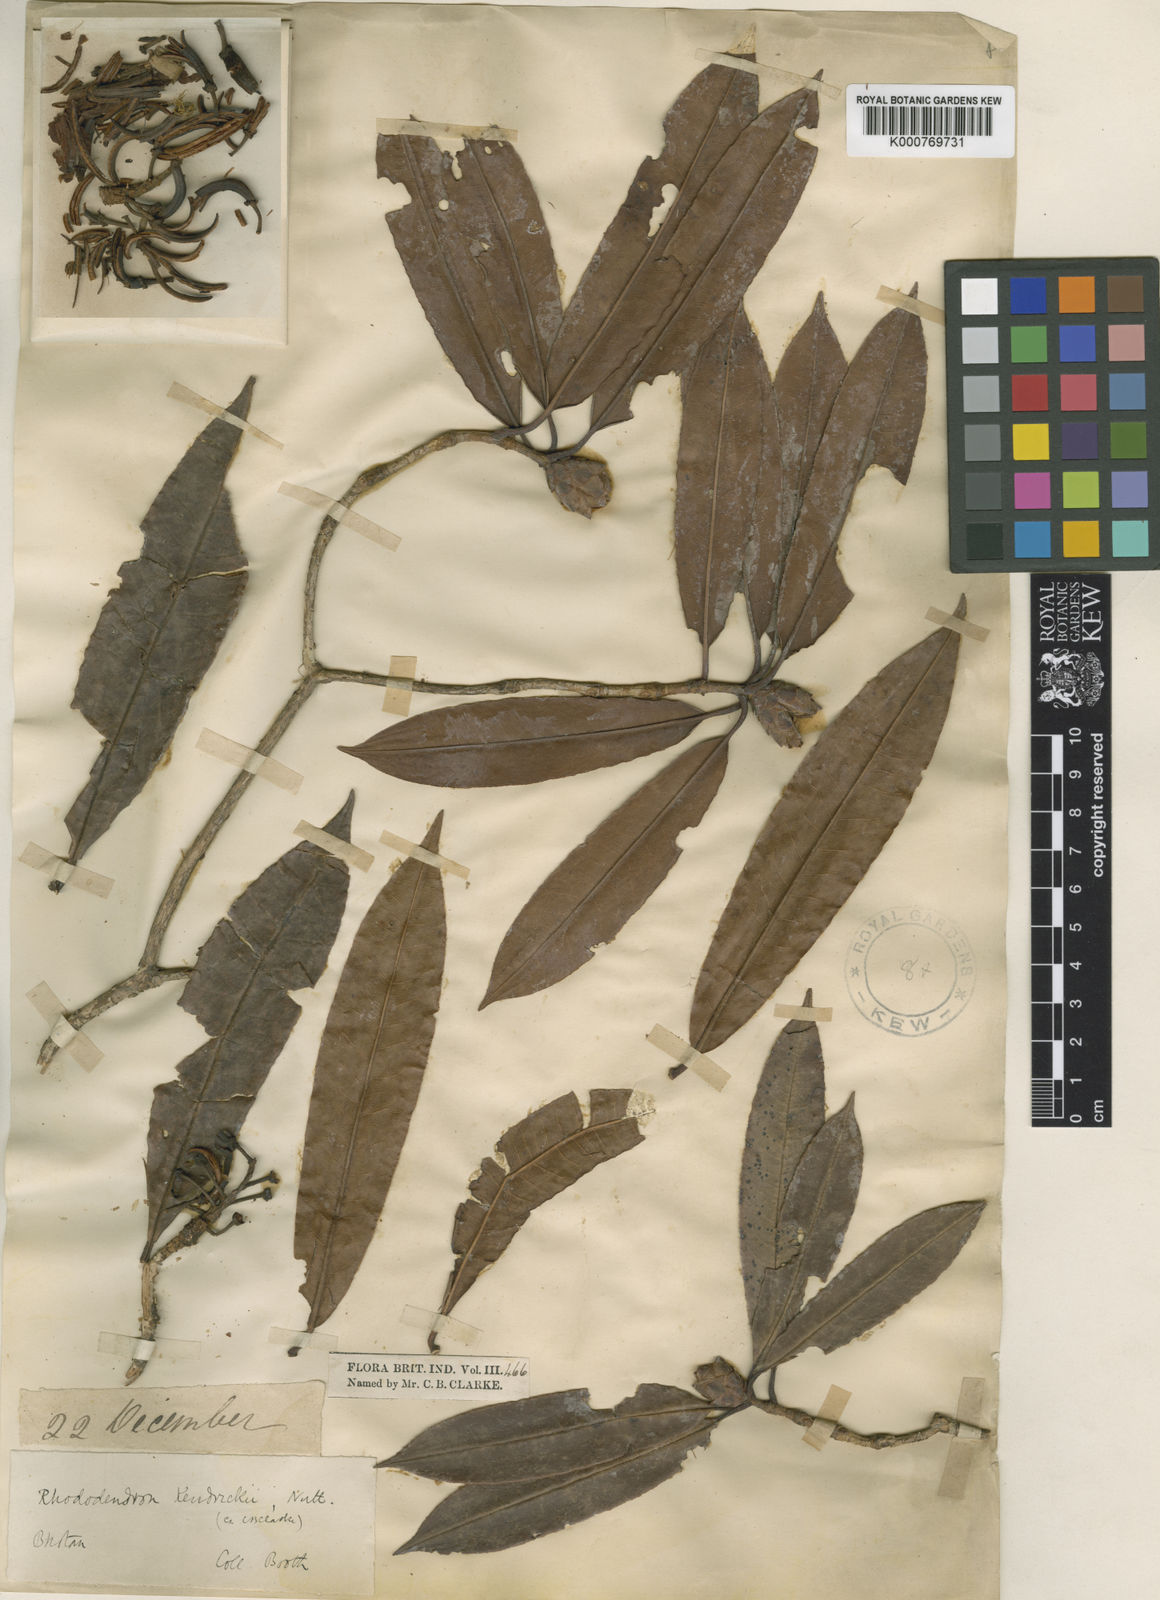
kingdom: Plantae
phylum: Tracheophyta
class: Magnoliopsida
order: Ericales
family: Ericaceae
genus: Rhododendron
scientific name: Rhododendron kendrickii
